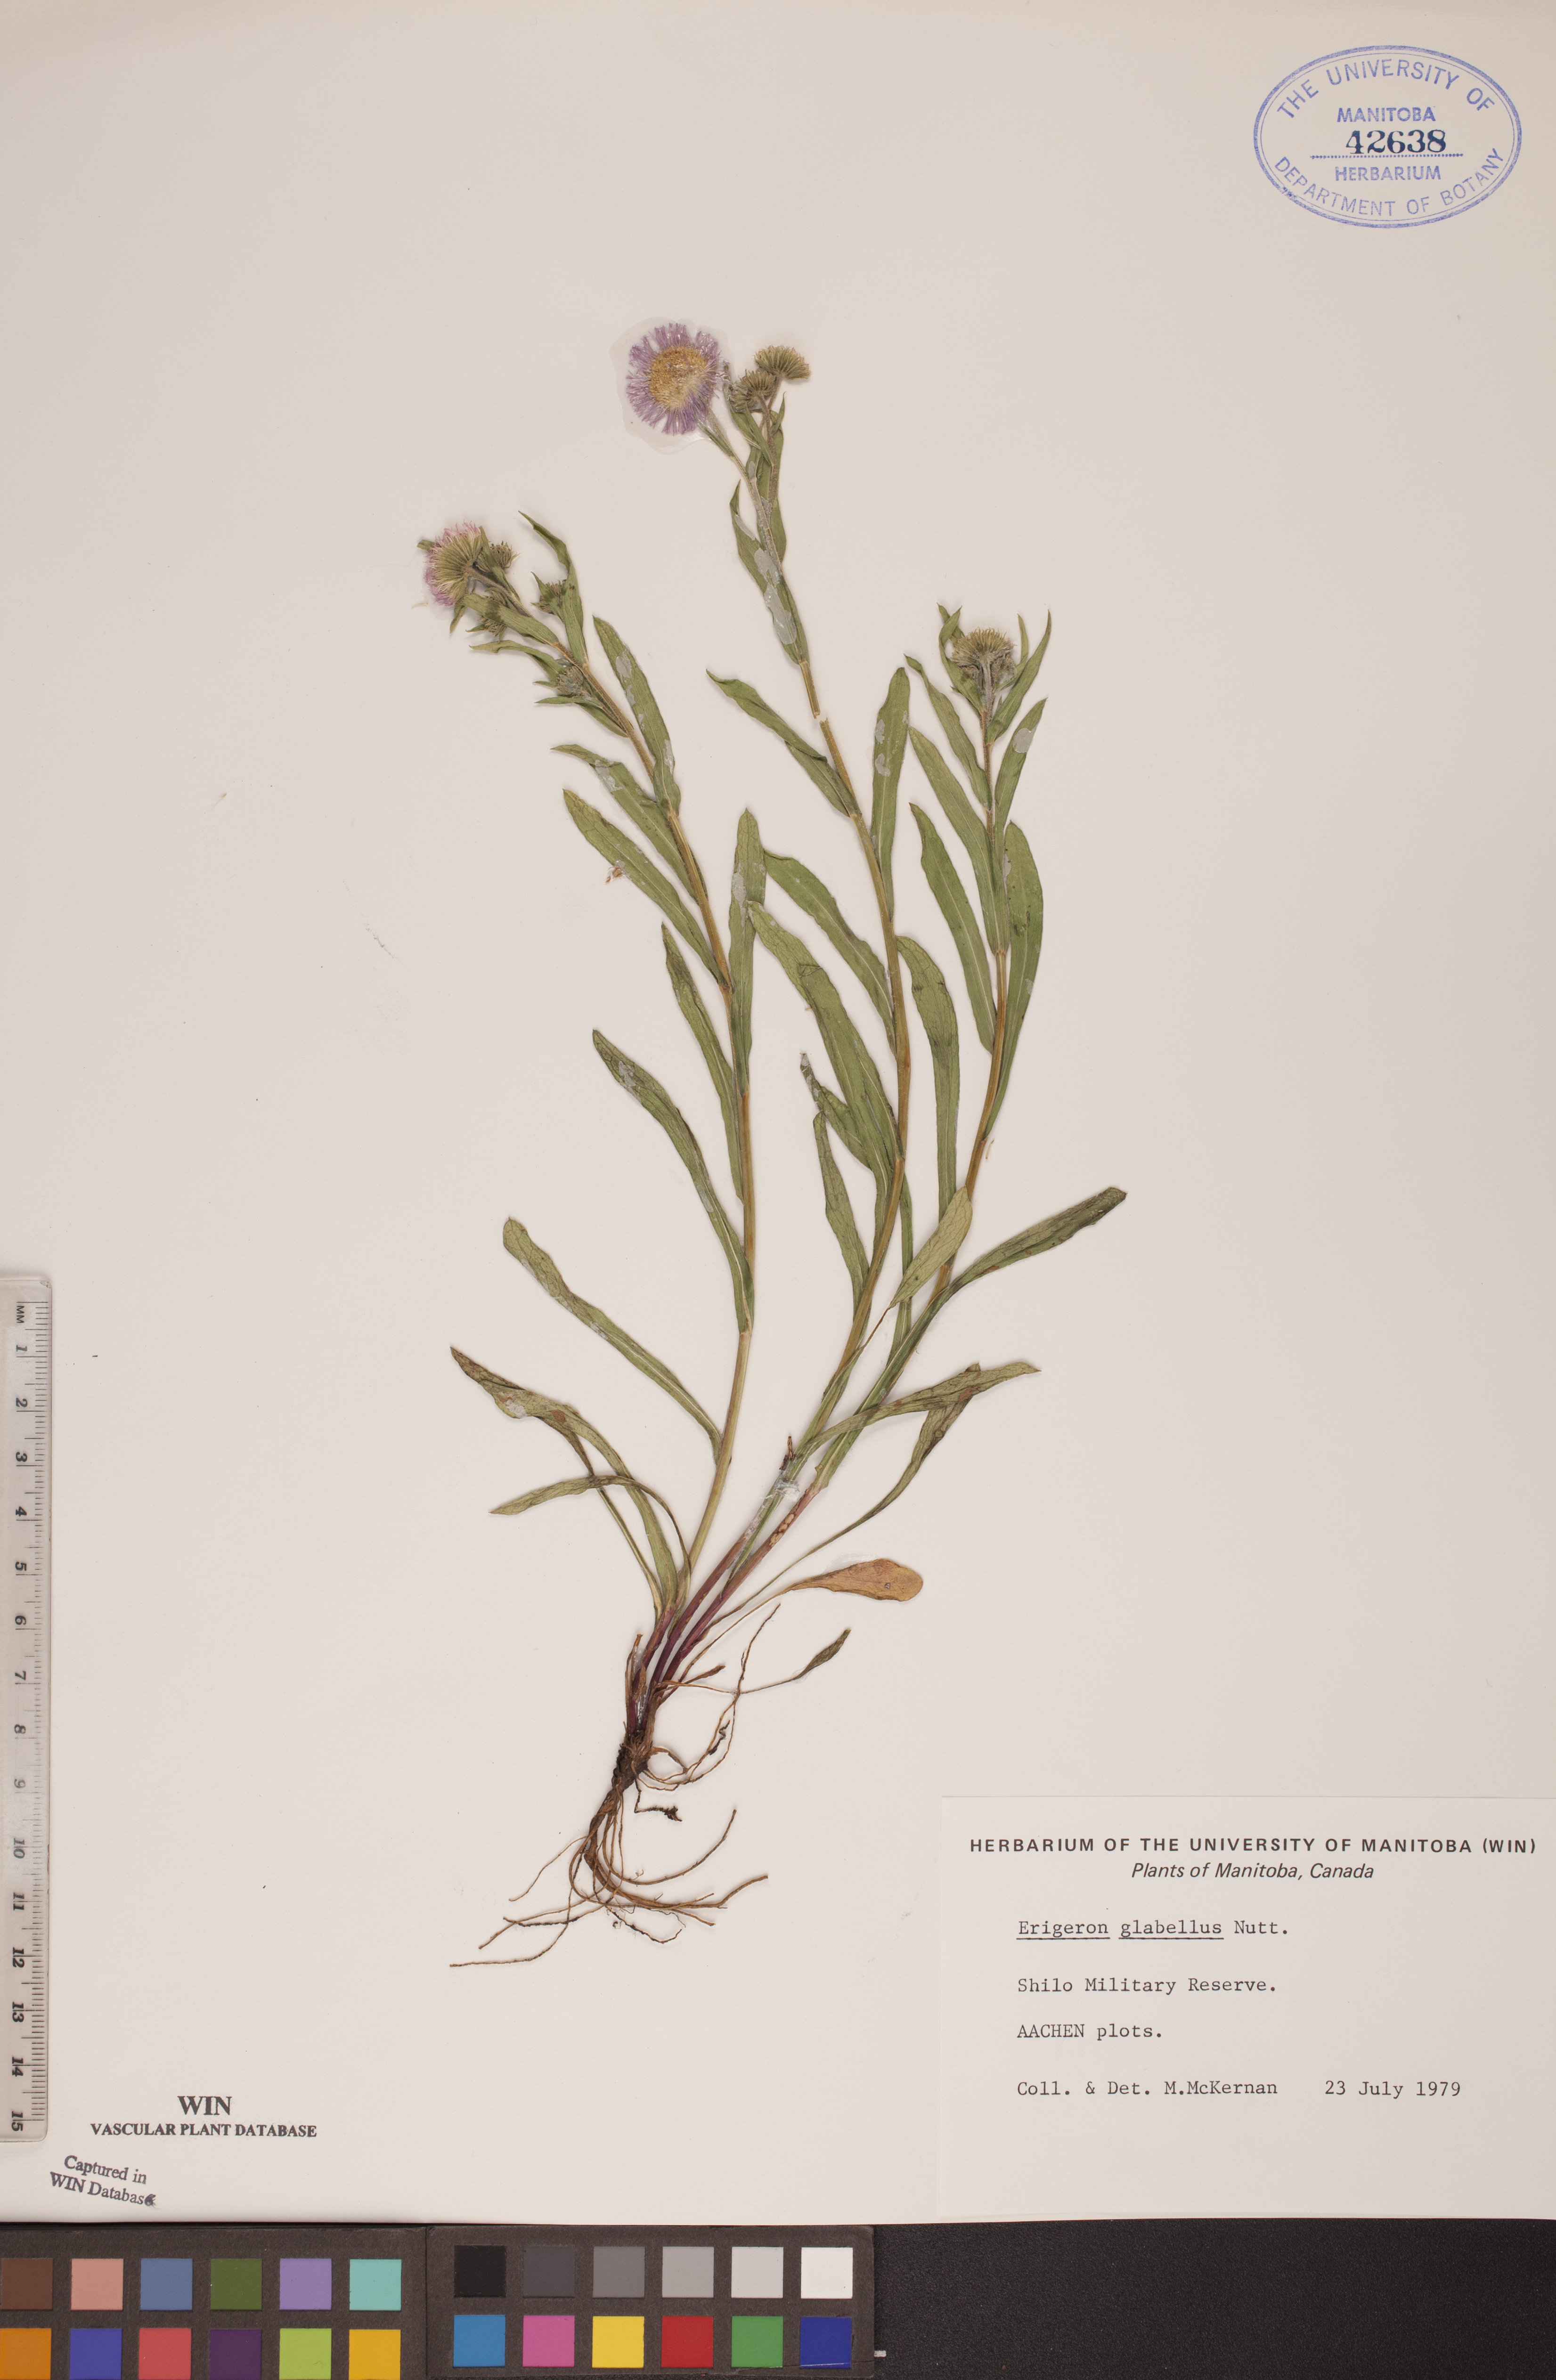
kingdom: Plantae
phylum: Tracheophyta
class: Magnoliopsida
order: Asterales
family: Asteraceae
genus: Erigeron
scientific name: Erigeron glabellus
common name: Smooth fleabane
